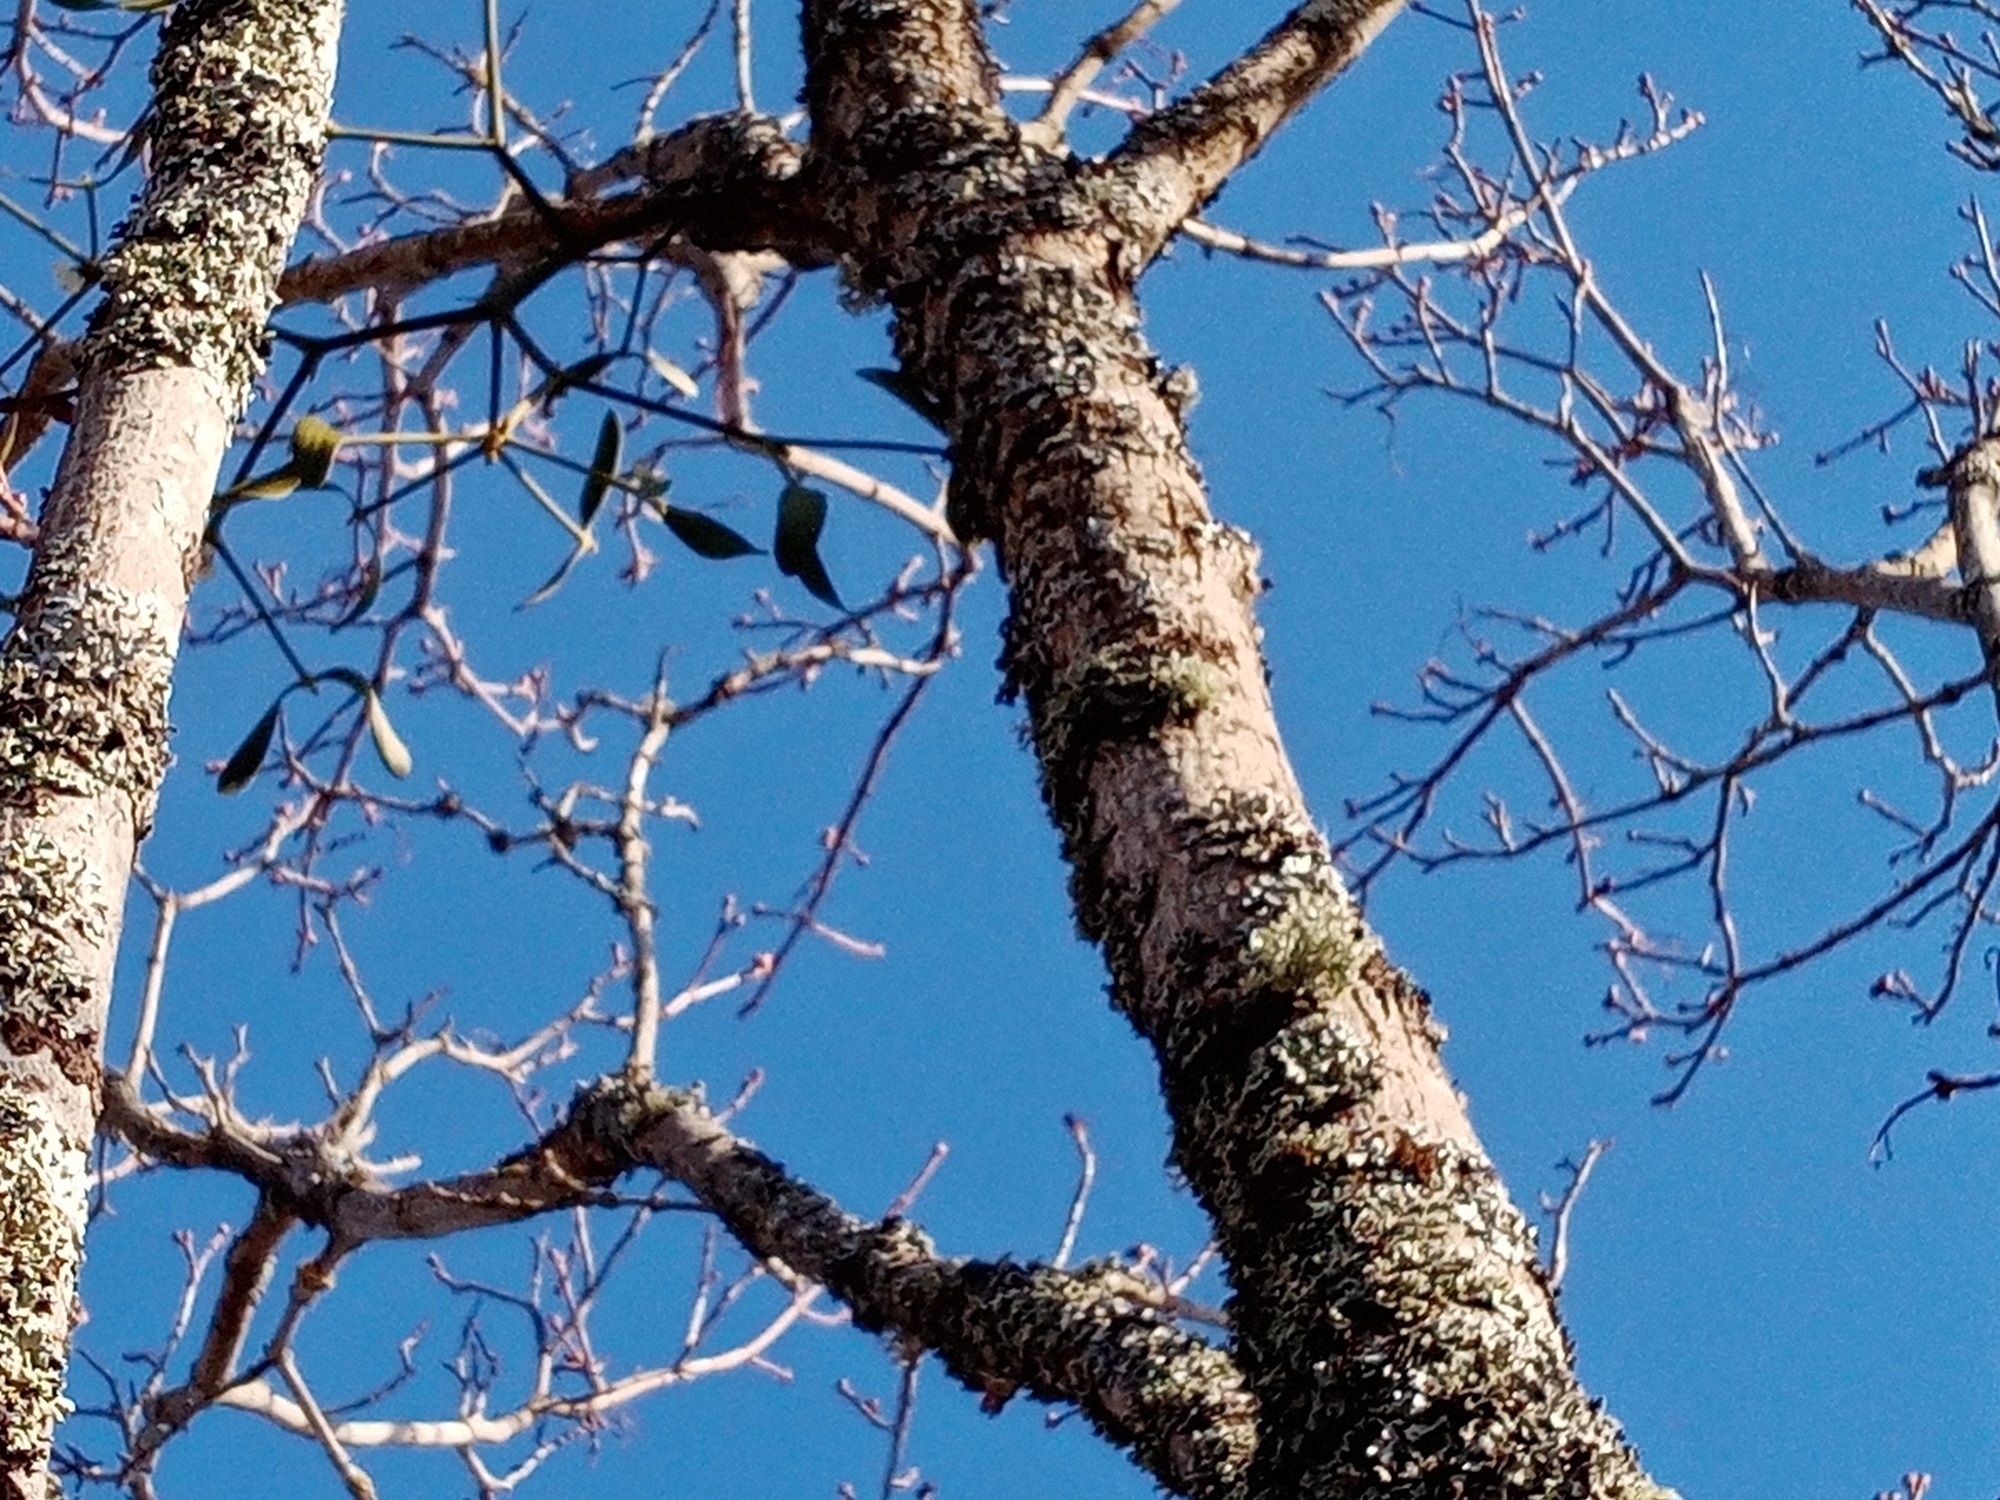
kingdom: Plantae
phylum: Tracheophyta
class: Magnoliopsida
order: Santalales
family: Viscaceae
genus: Viscum
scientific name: Viscum album
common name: Mistletoe
